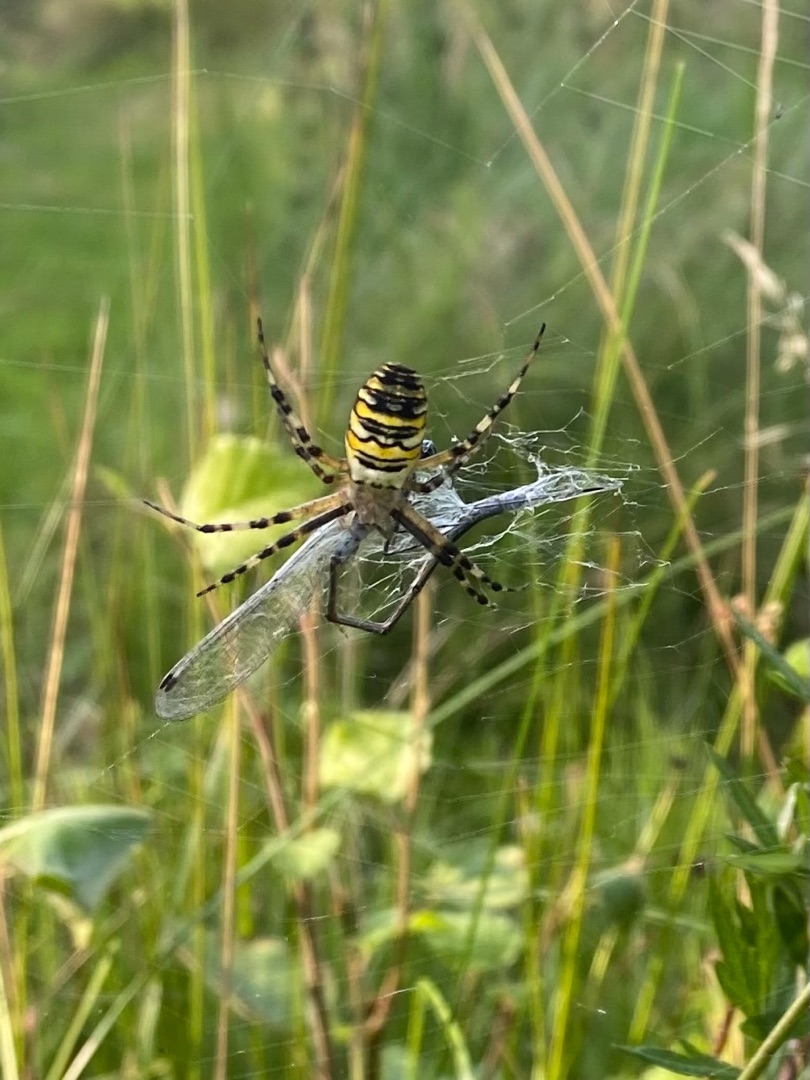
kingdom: Animalia
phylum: Arthropoda
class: Arachnida
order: Araneae
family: Araneidae
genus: Argiope
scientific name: Argiope bruennichi
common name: Hvepseedderkop
